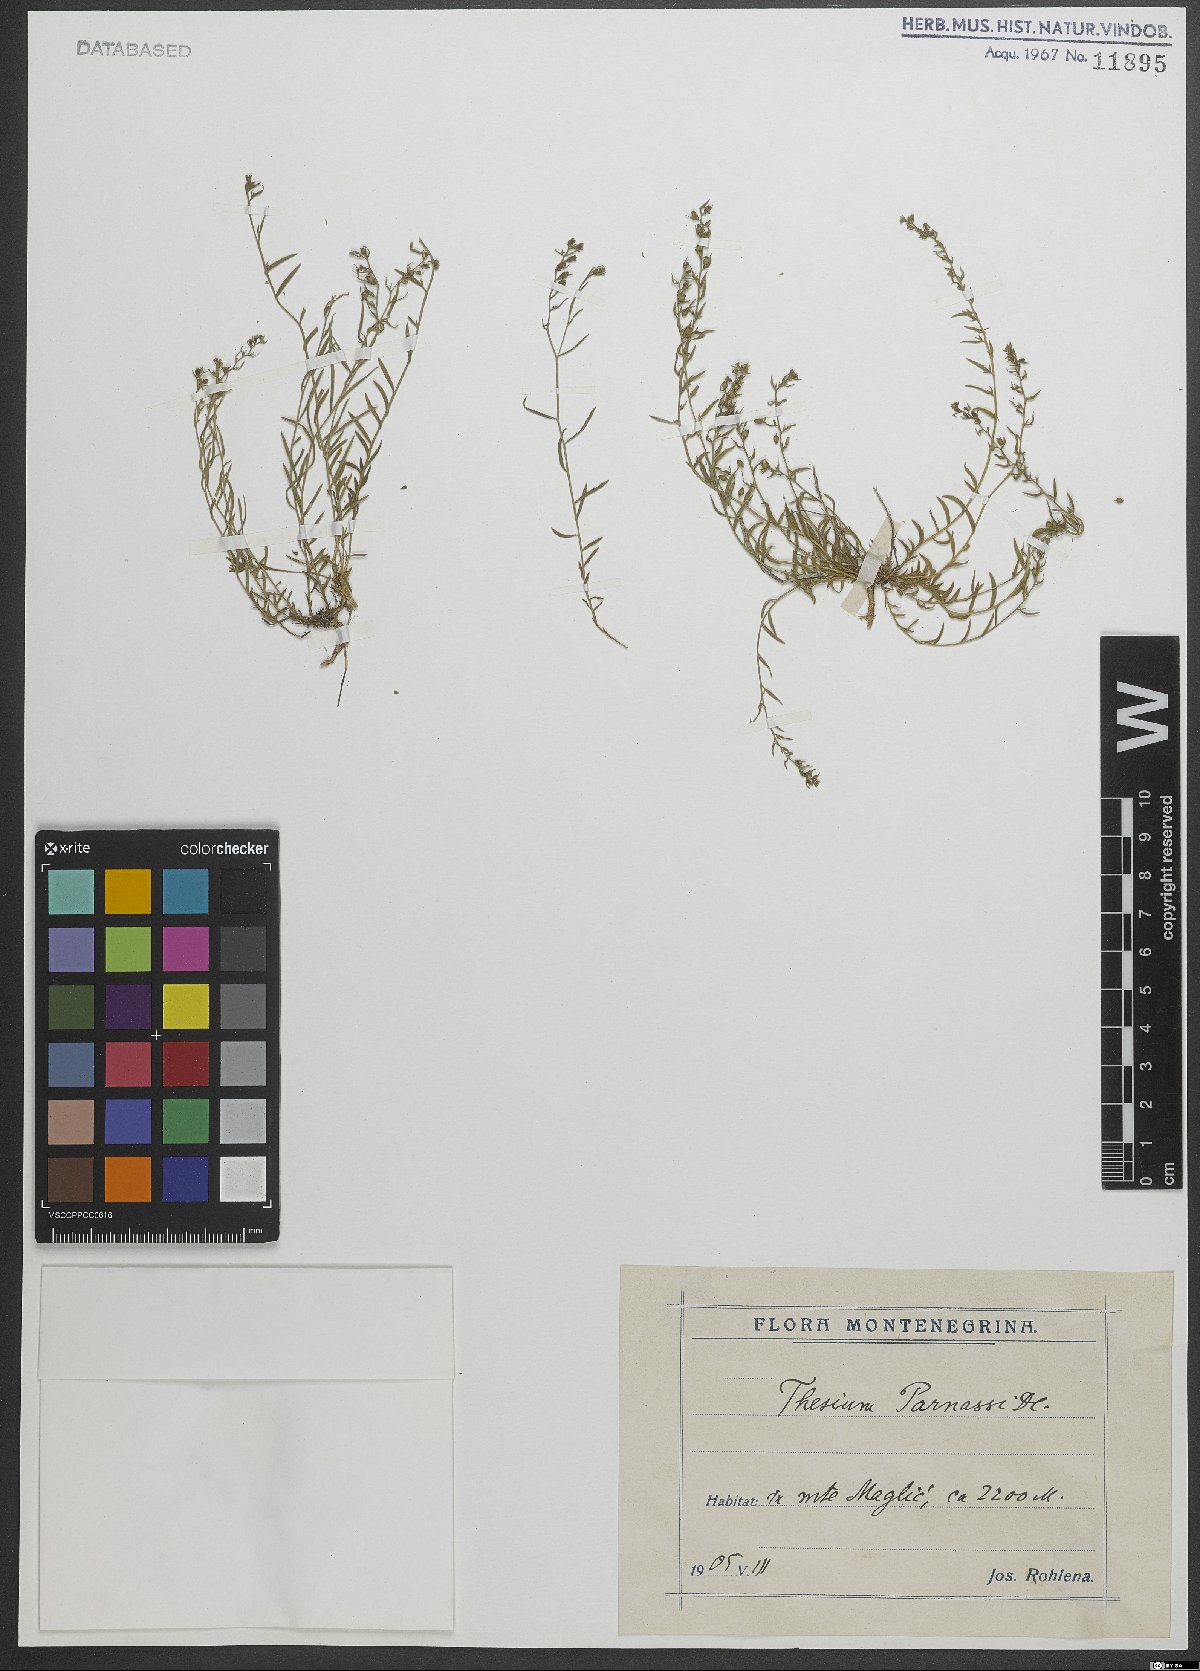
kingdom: Plantae
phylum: Tracheophyta
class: Magnoliopsida
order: Santalales
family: Thesiaceae
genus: Thesium
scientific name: Thesium parnassi
